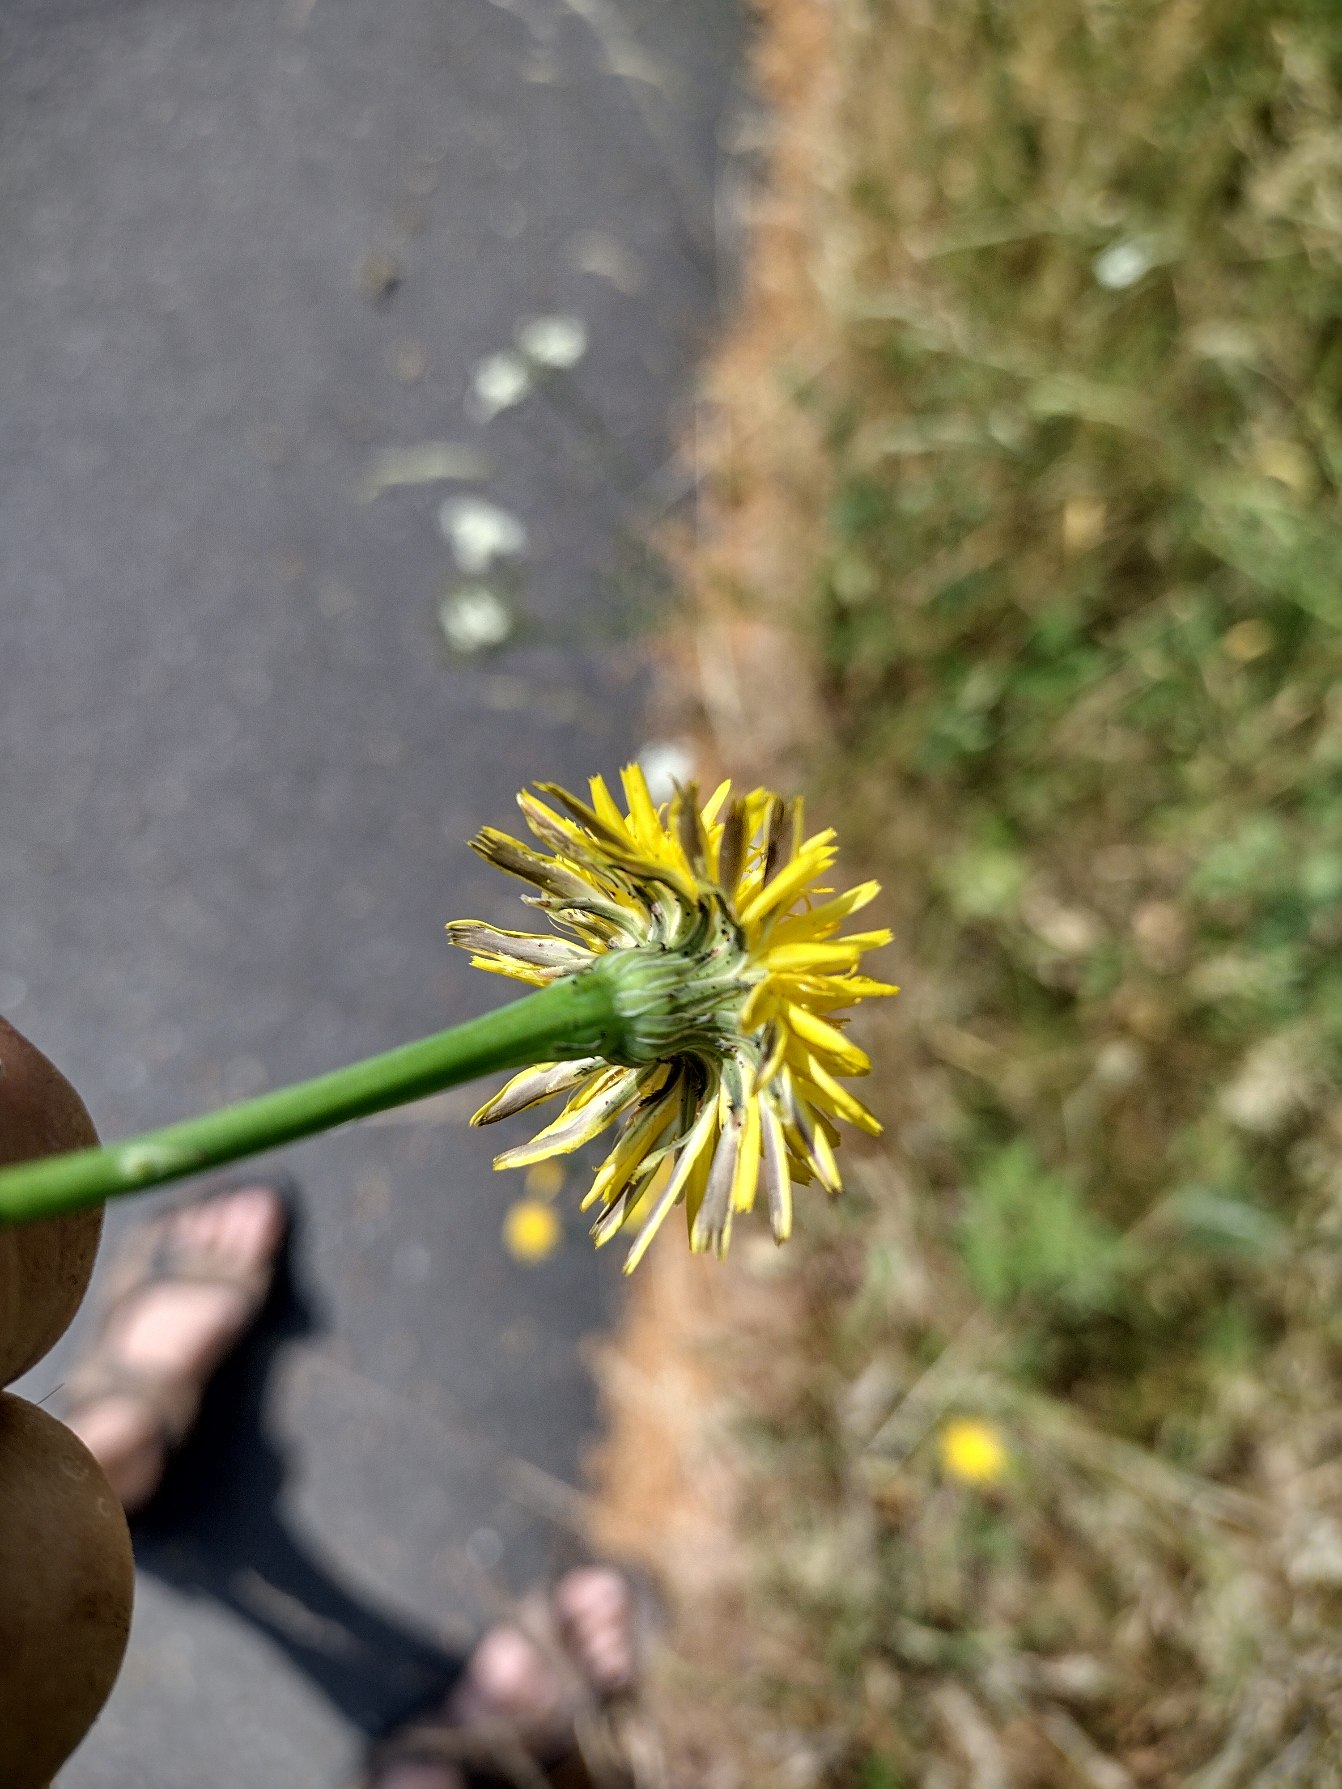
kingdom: Plantae
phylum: Tracheophyta
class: Magnoliopsida
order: Asterales
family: Asteraceae
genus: Hypochaeris
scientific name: Hypochaeris radicata
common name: Almindelig kongepen
